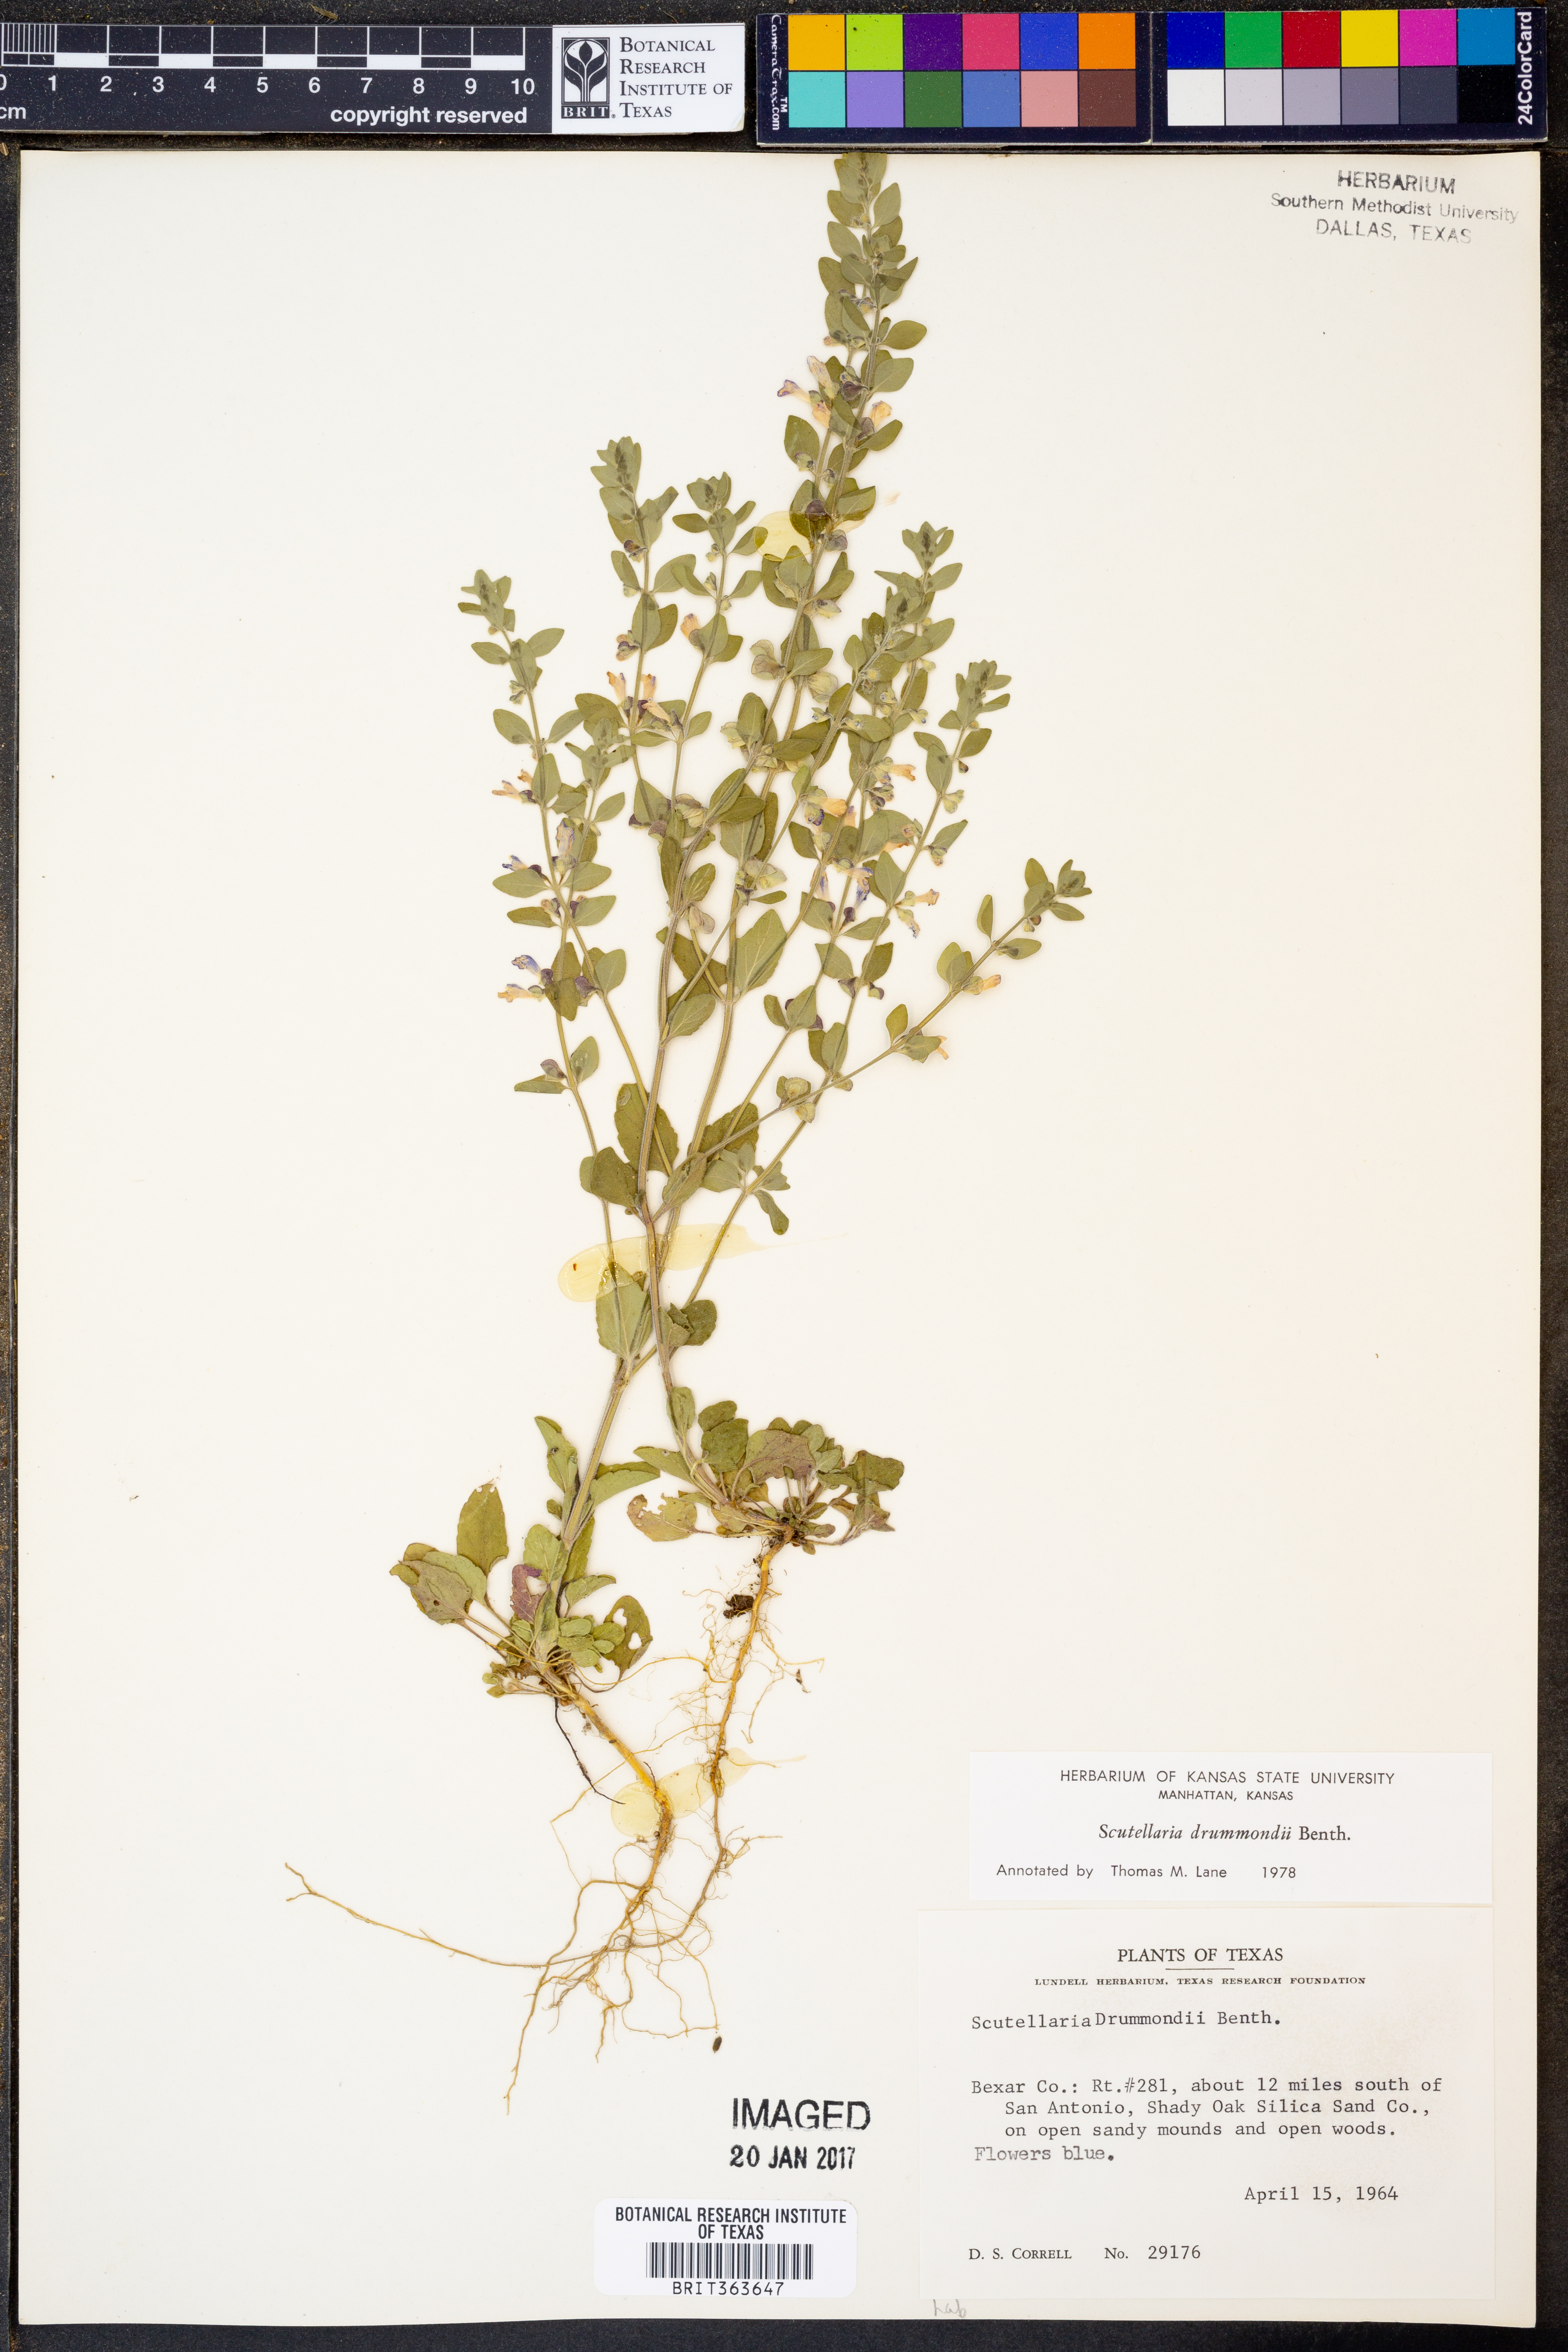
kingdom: Plantae
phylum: Tracheophyta
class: Magnoliopsida
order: Lamiales
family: Lamiaceae
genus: Scutellaria
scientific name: Scutellaria drummondii
